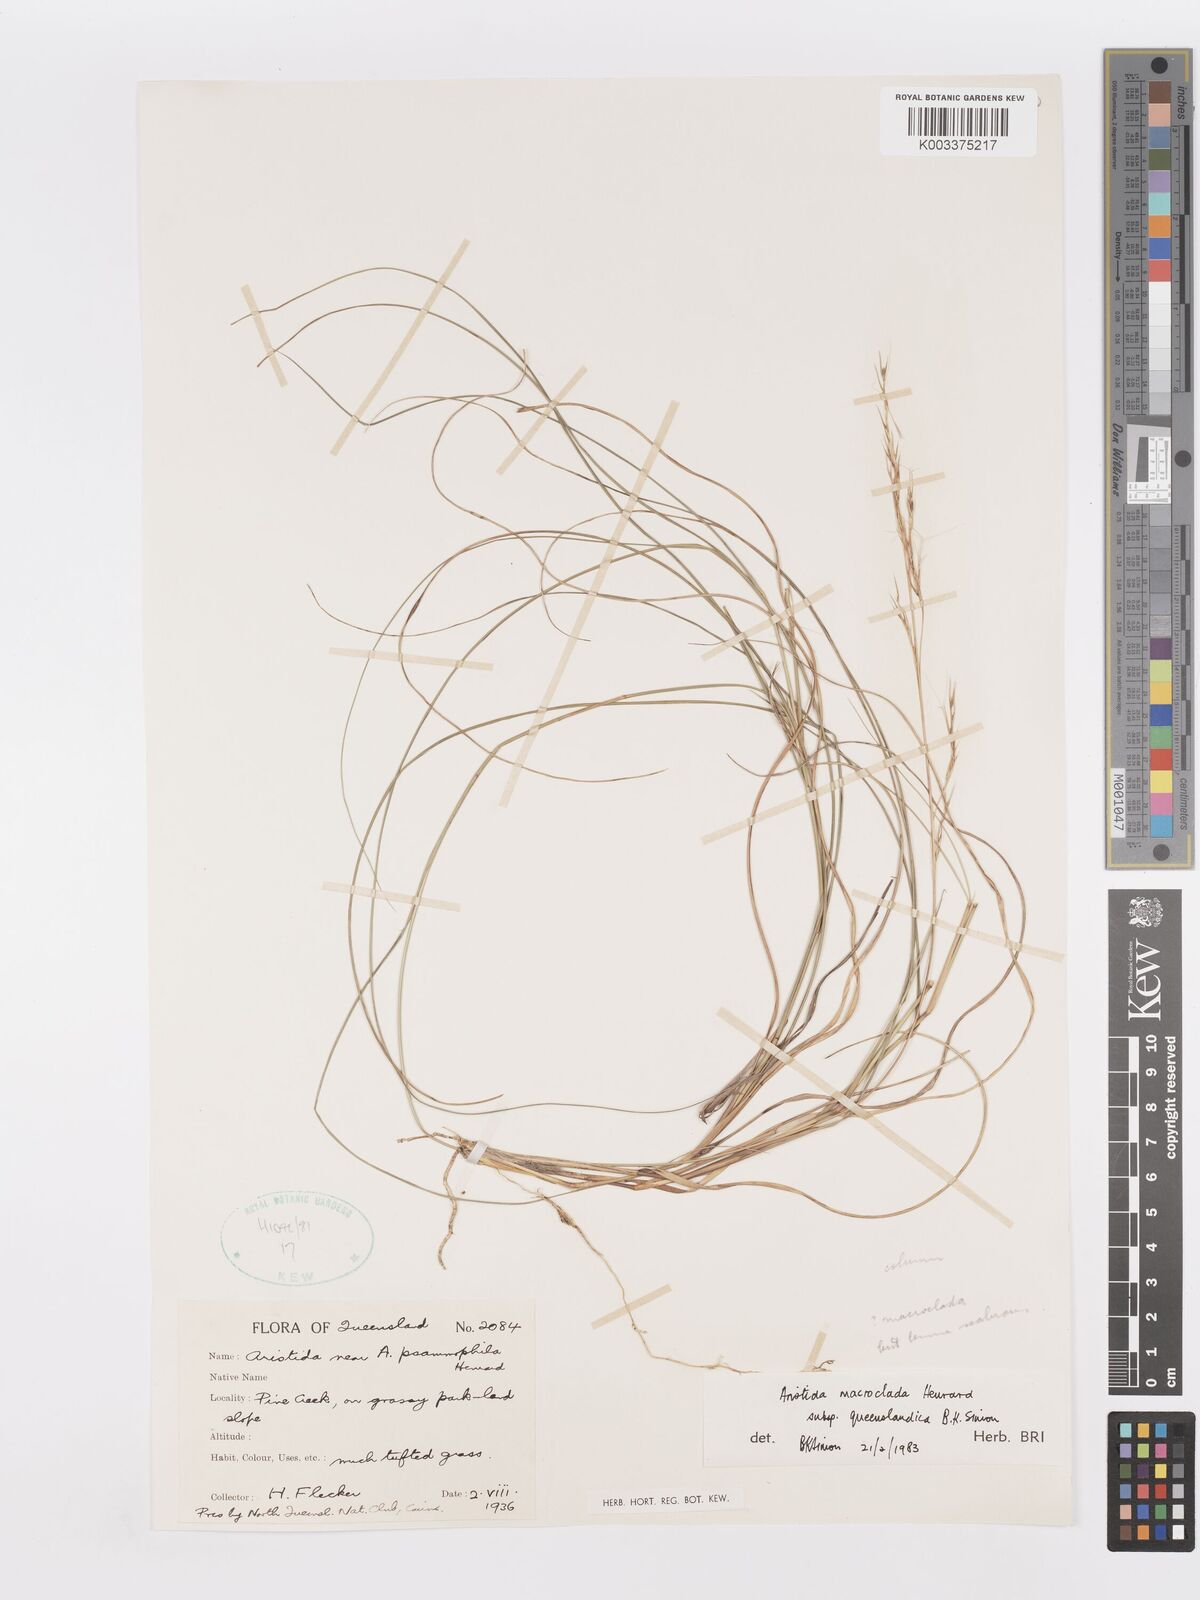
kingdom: Plantae
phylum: Tracheophyta
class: Liliopsida
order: Poales
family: Poaceae
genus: Aristida
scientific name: Aristida macroclada
